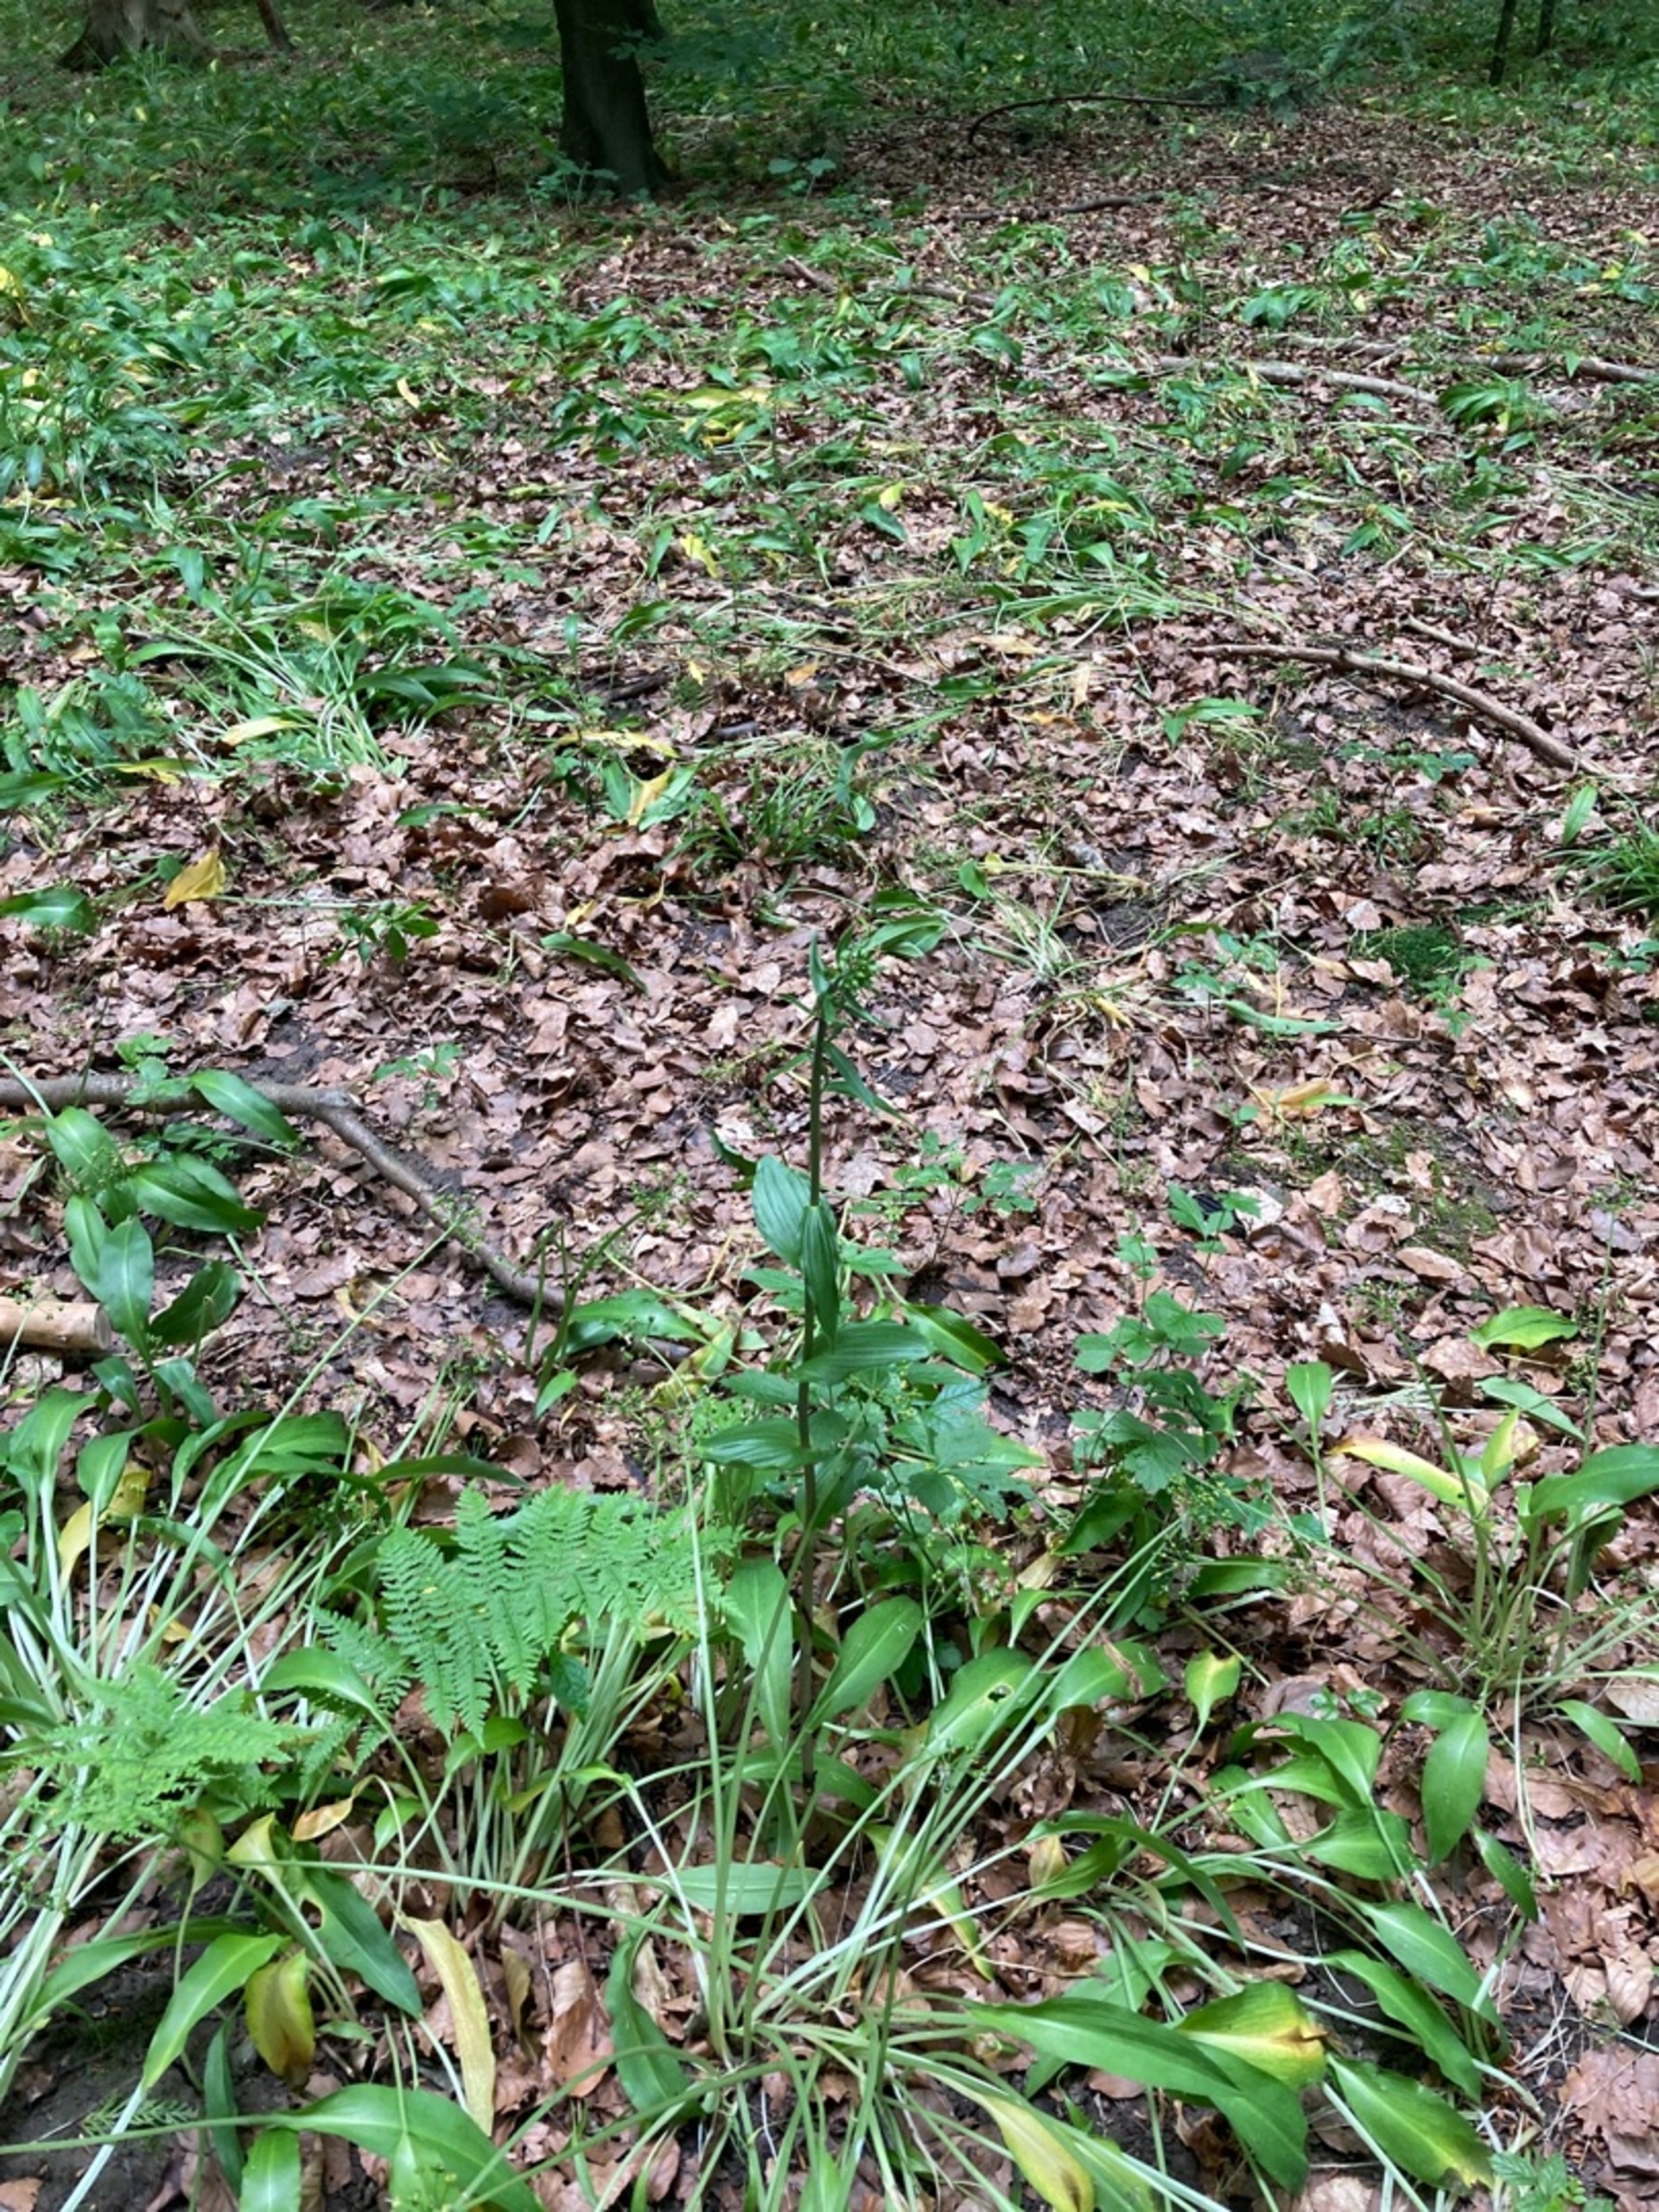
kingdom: Plantae
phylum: Tracheophyta
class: Liliopsida
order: Asparagales
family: Orchidaceae
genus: Epipactis
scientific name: Epipactis helleborine
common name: Skov-hullæbe
